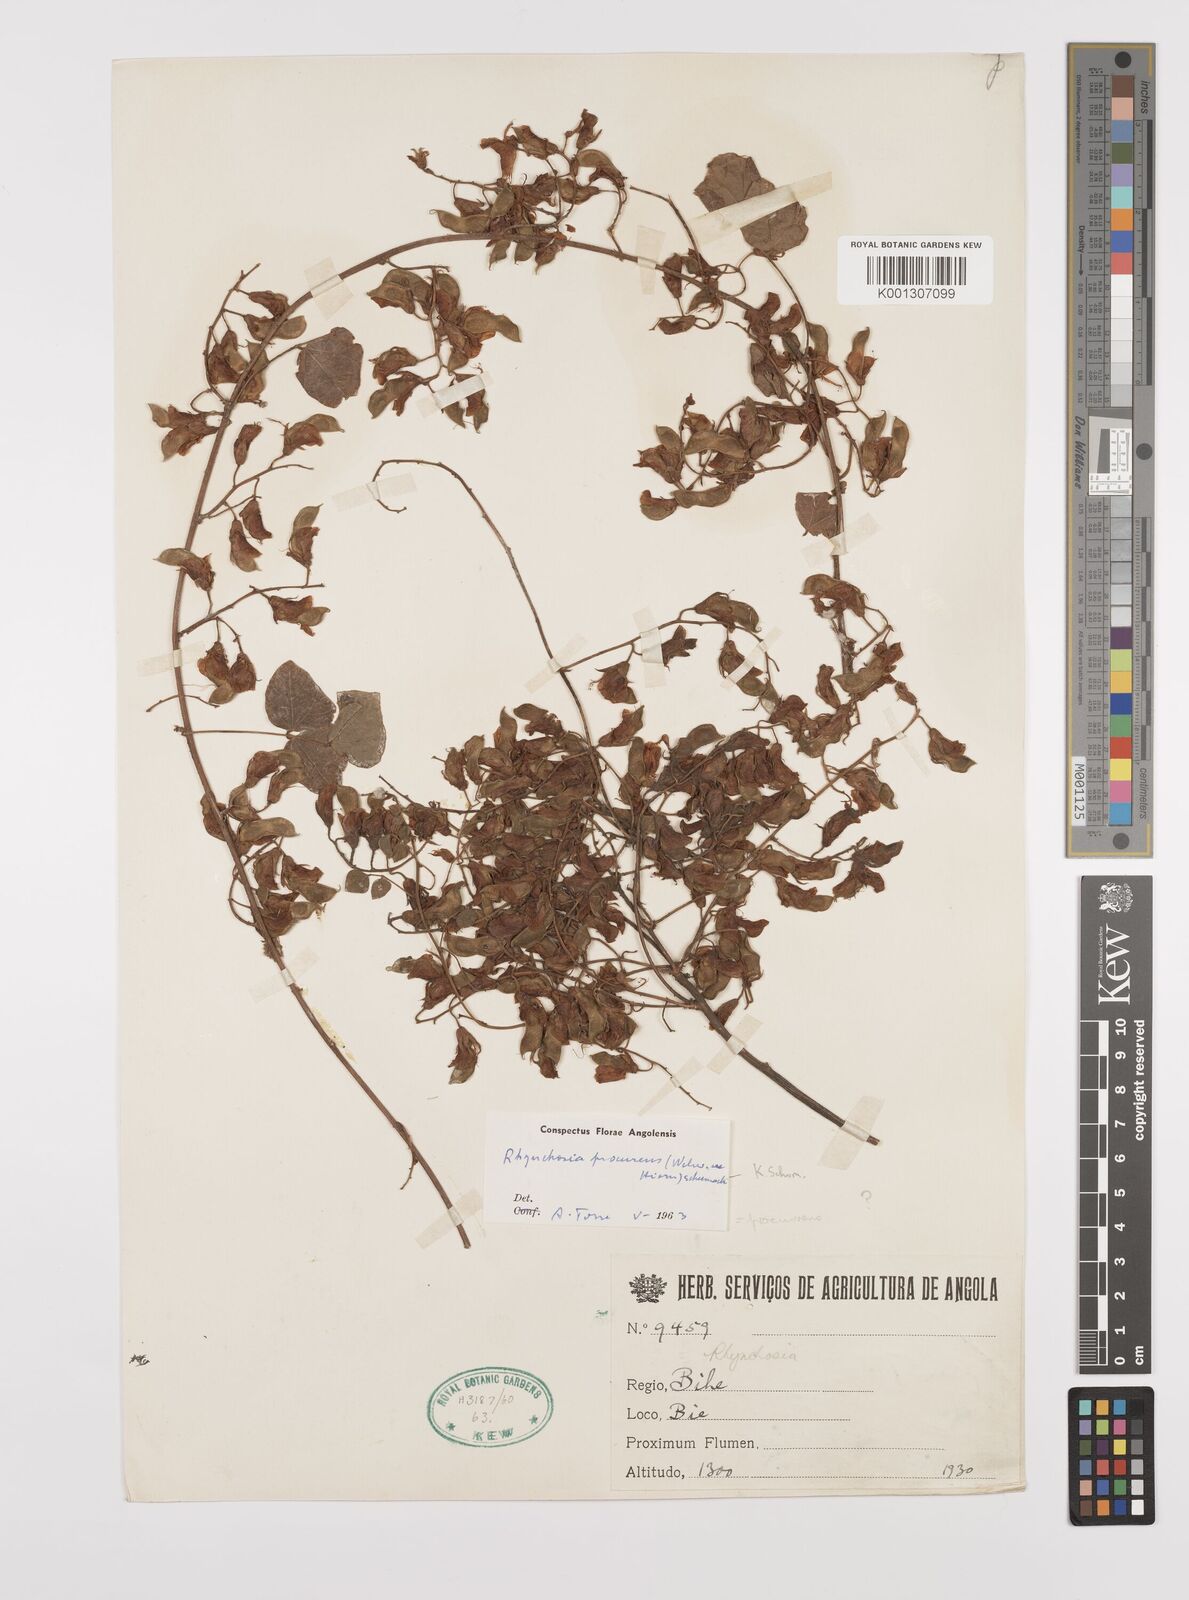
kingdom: Plantae
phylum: Tracheophyta
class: Magnoliopsida
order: Fabales
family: Fabaceae
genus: Rhynchosia
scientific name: Rhynchosia procurrens
